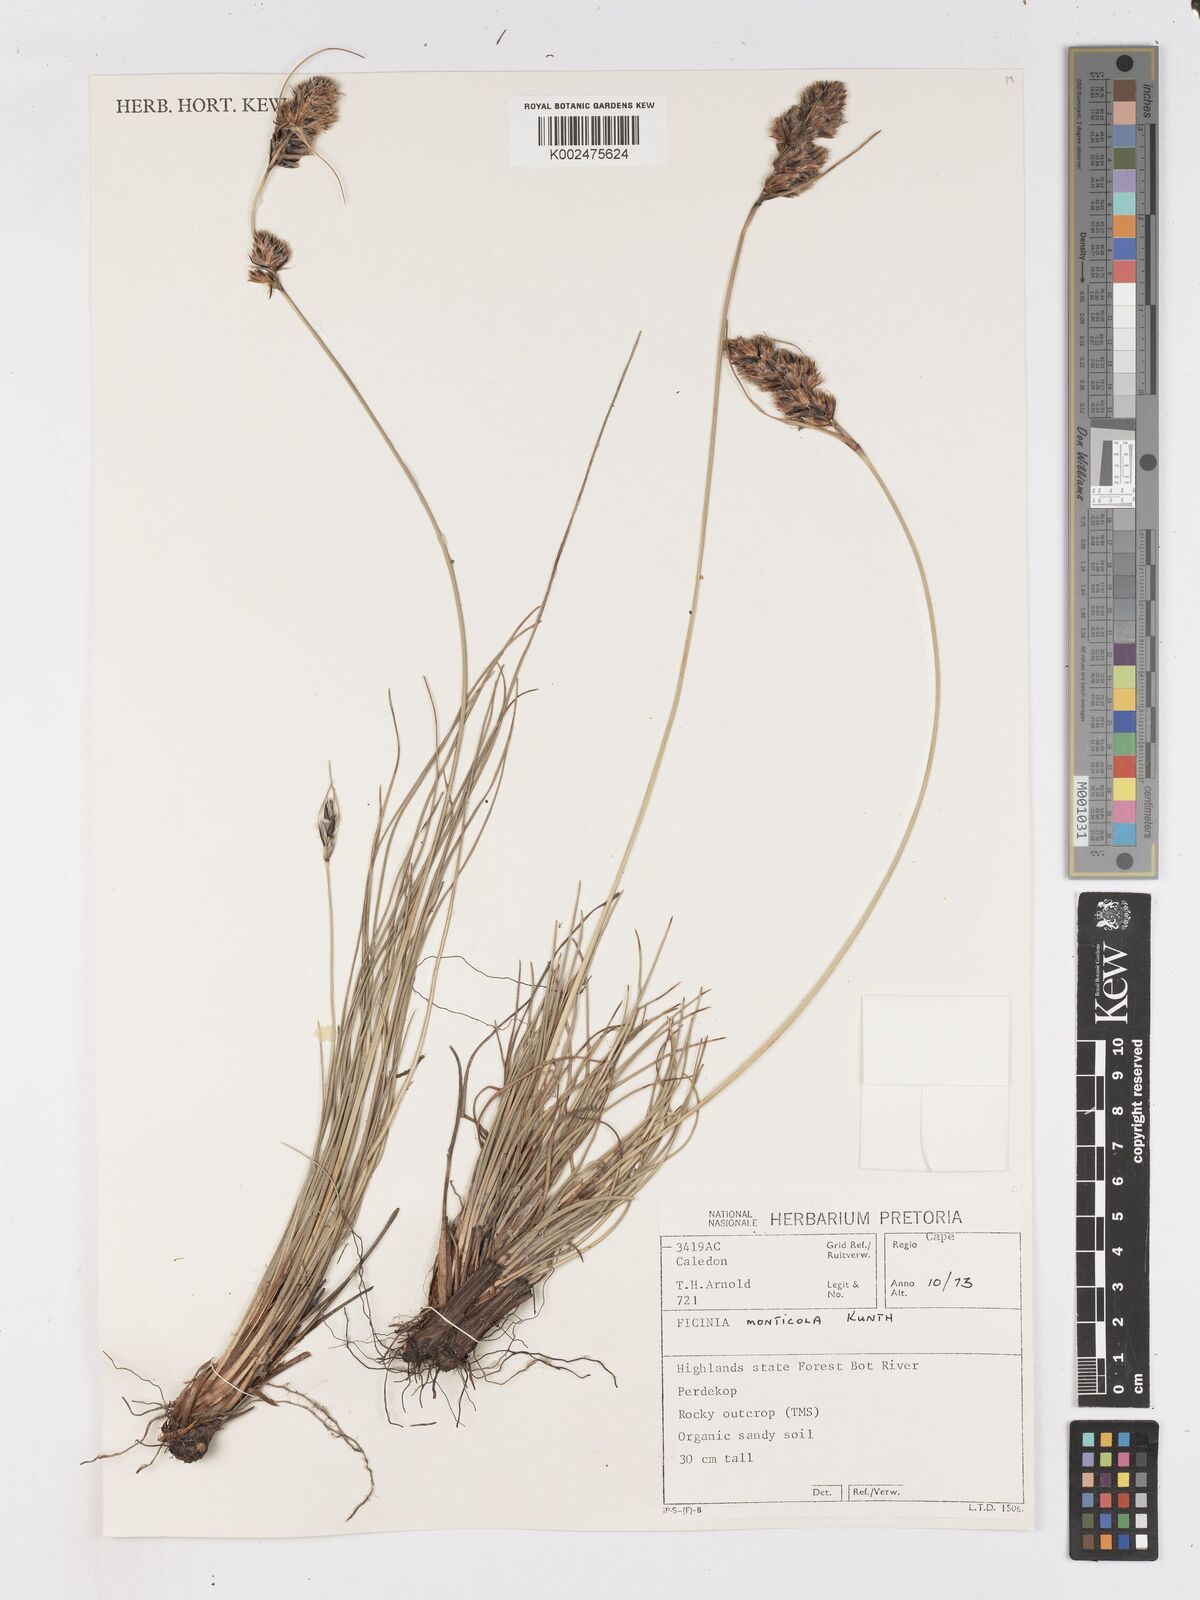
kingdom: Plantae
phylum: Tracheophyta
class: Liliopsida
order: Poales
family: Cyperaceae
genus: Ficinia
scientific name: Ficinia monticola
